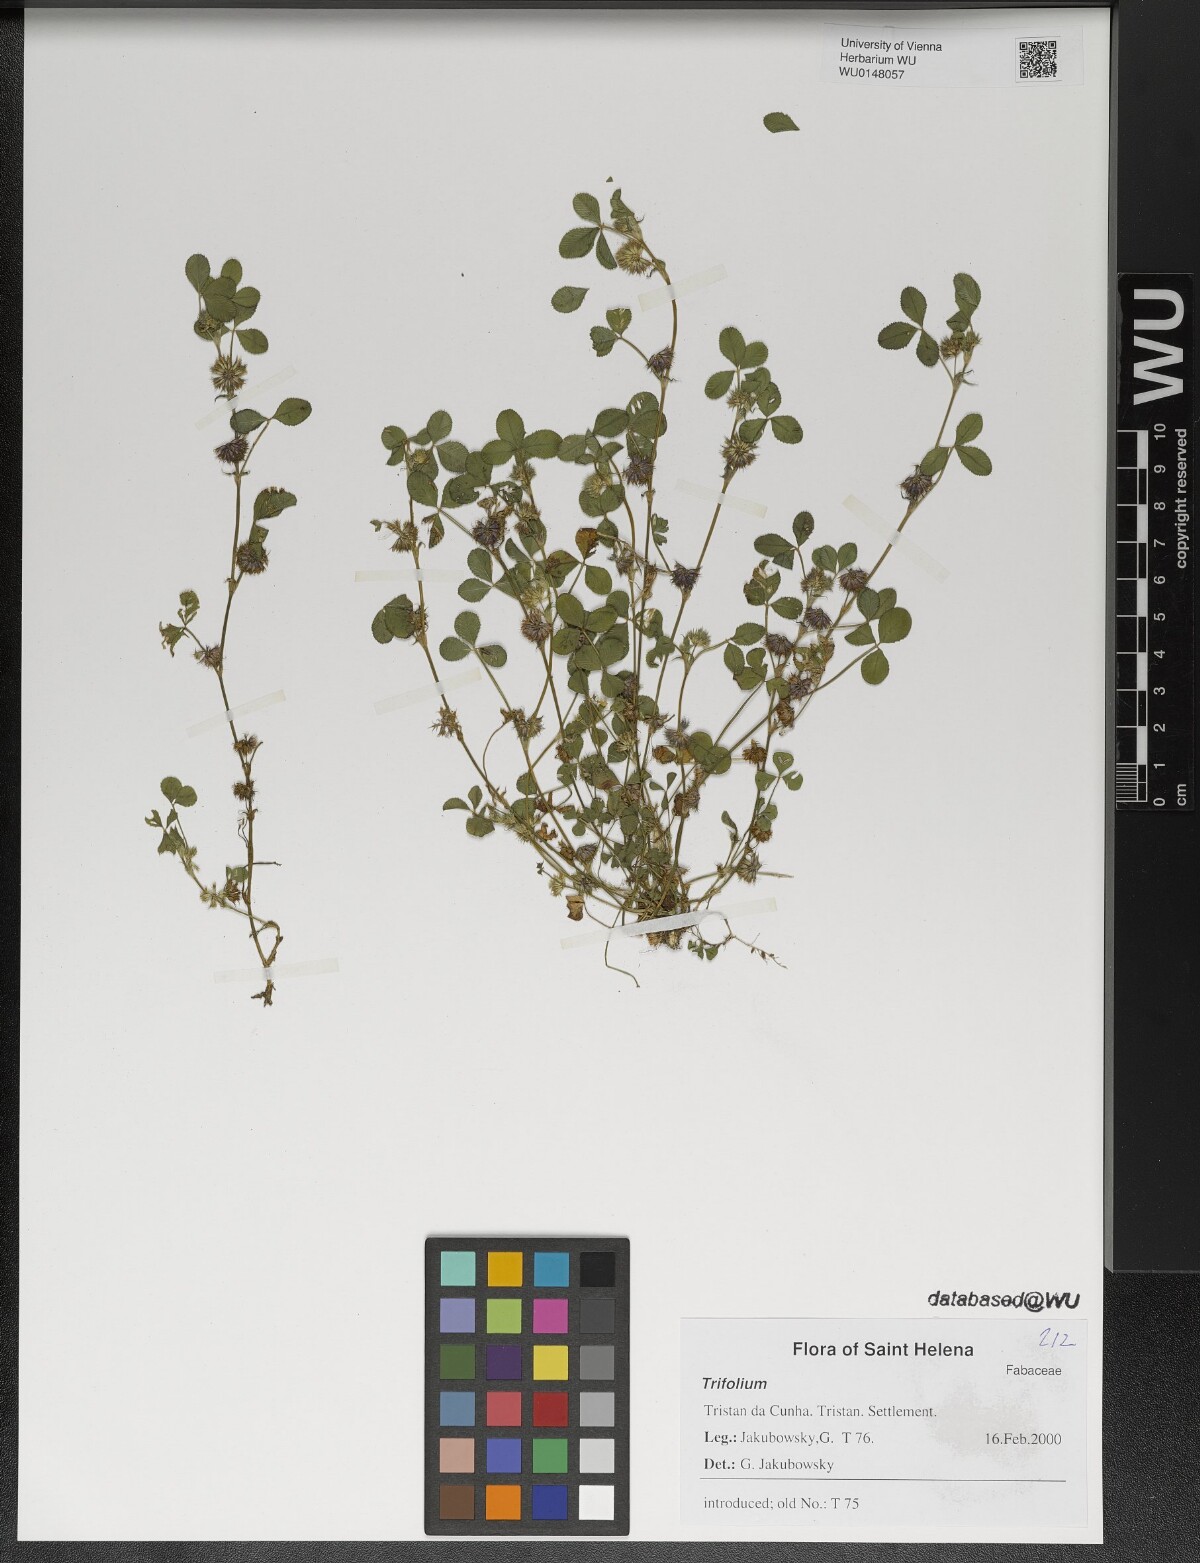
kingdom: Plantae
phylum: Tracheophyta
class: Magnoliopsida
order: Fabales
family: Fabaceae
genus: Trifolium
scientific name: Trifolium
